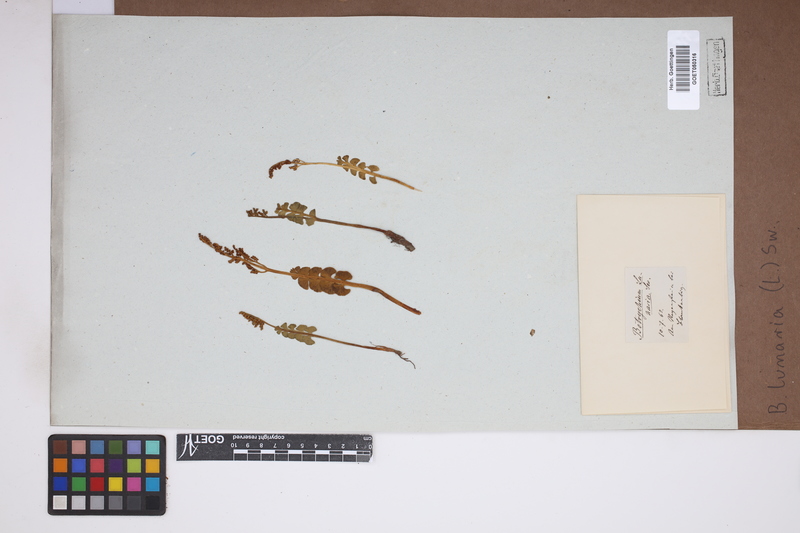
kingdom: Plantae
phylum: Tracheophyta
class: Polypodiopsida
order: Ophioglossales
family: Ophioglossaceae
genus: Botrychium
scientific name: Botrychium lunaria
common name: Moonwort
